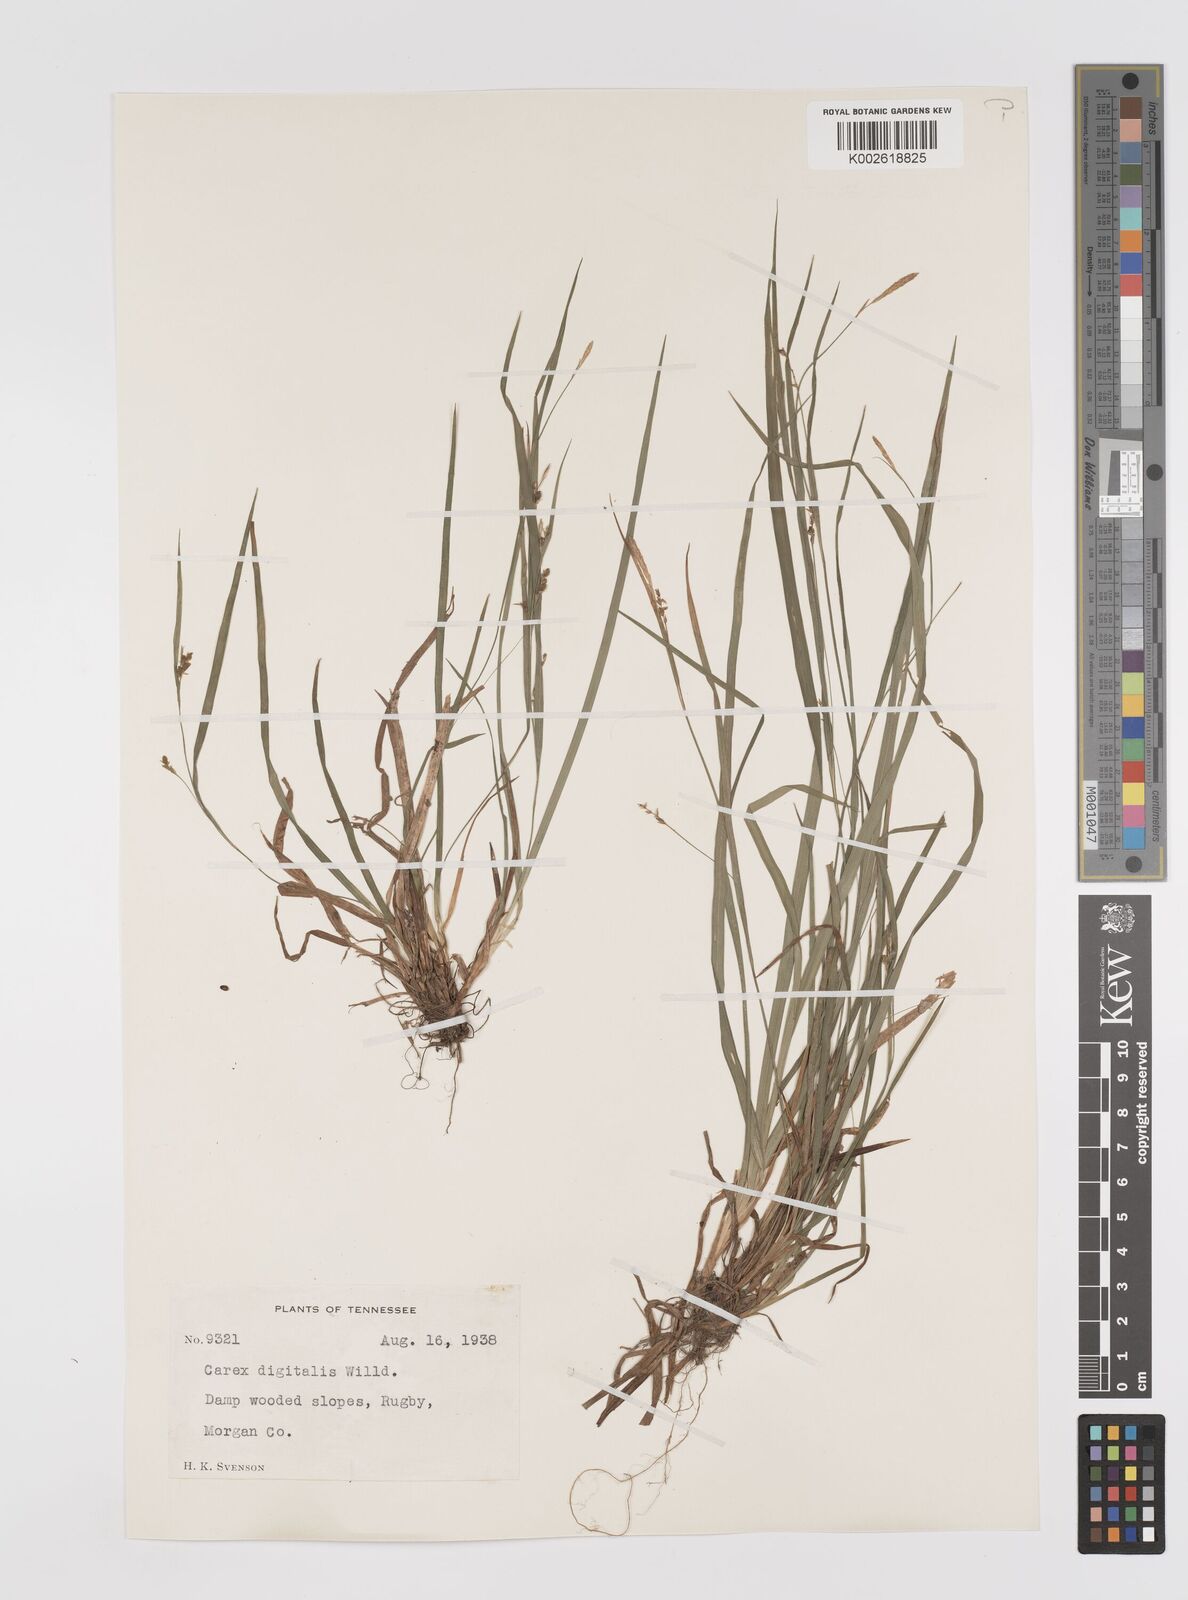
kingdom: Plantae
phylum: Tracheophyta
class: Liliopsida
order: Poales
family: Cyperaceae
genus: Carex
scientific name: Carex digitalis
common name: Slender wood sedge
